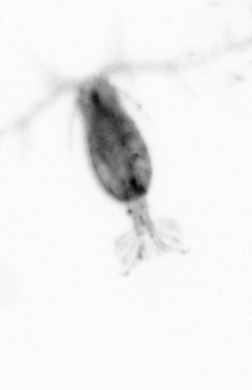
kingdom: Animalia
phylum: Arthropoda
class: Copepoda
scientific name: Copepoda
